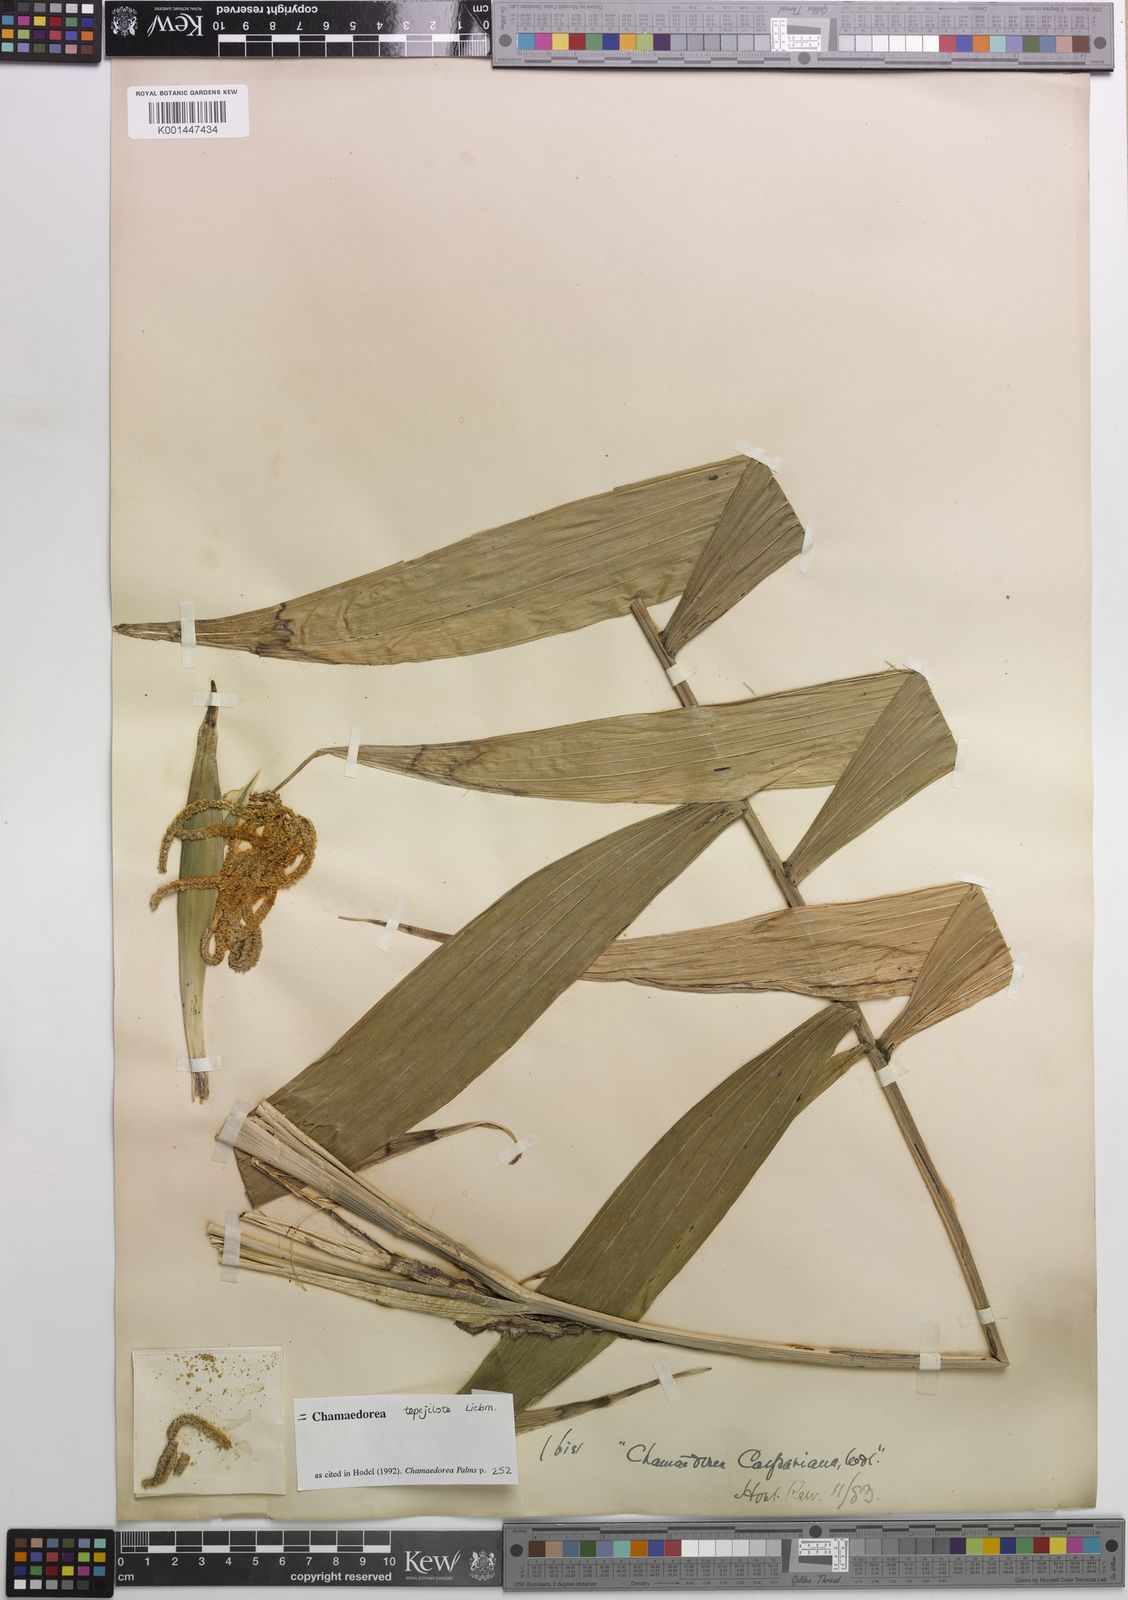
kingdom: Plantae
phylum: Tracheophyta
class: Liliopsida
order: Arecales
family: Arecaceae
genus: Chamaedorea
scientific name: Chamaedorea tepejilote
